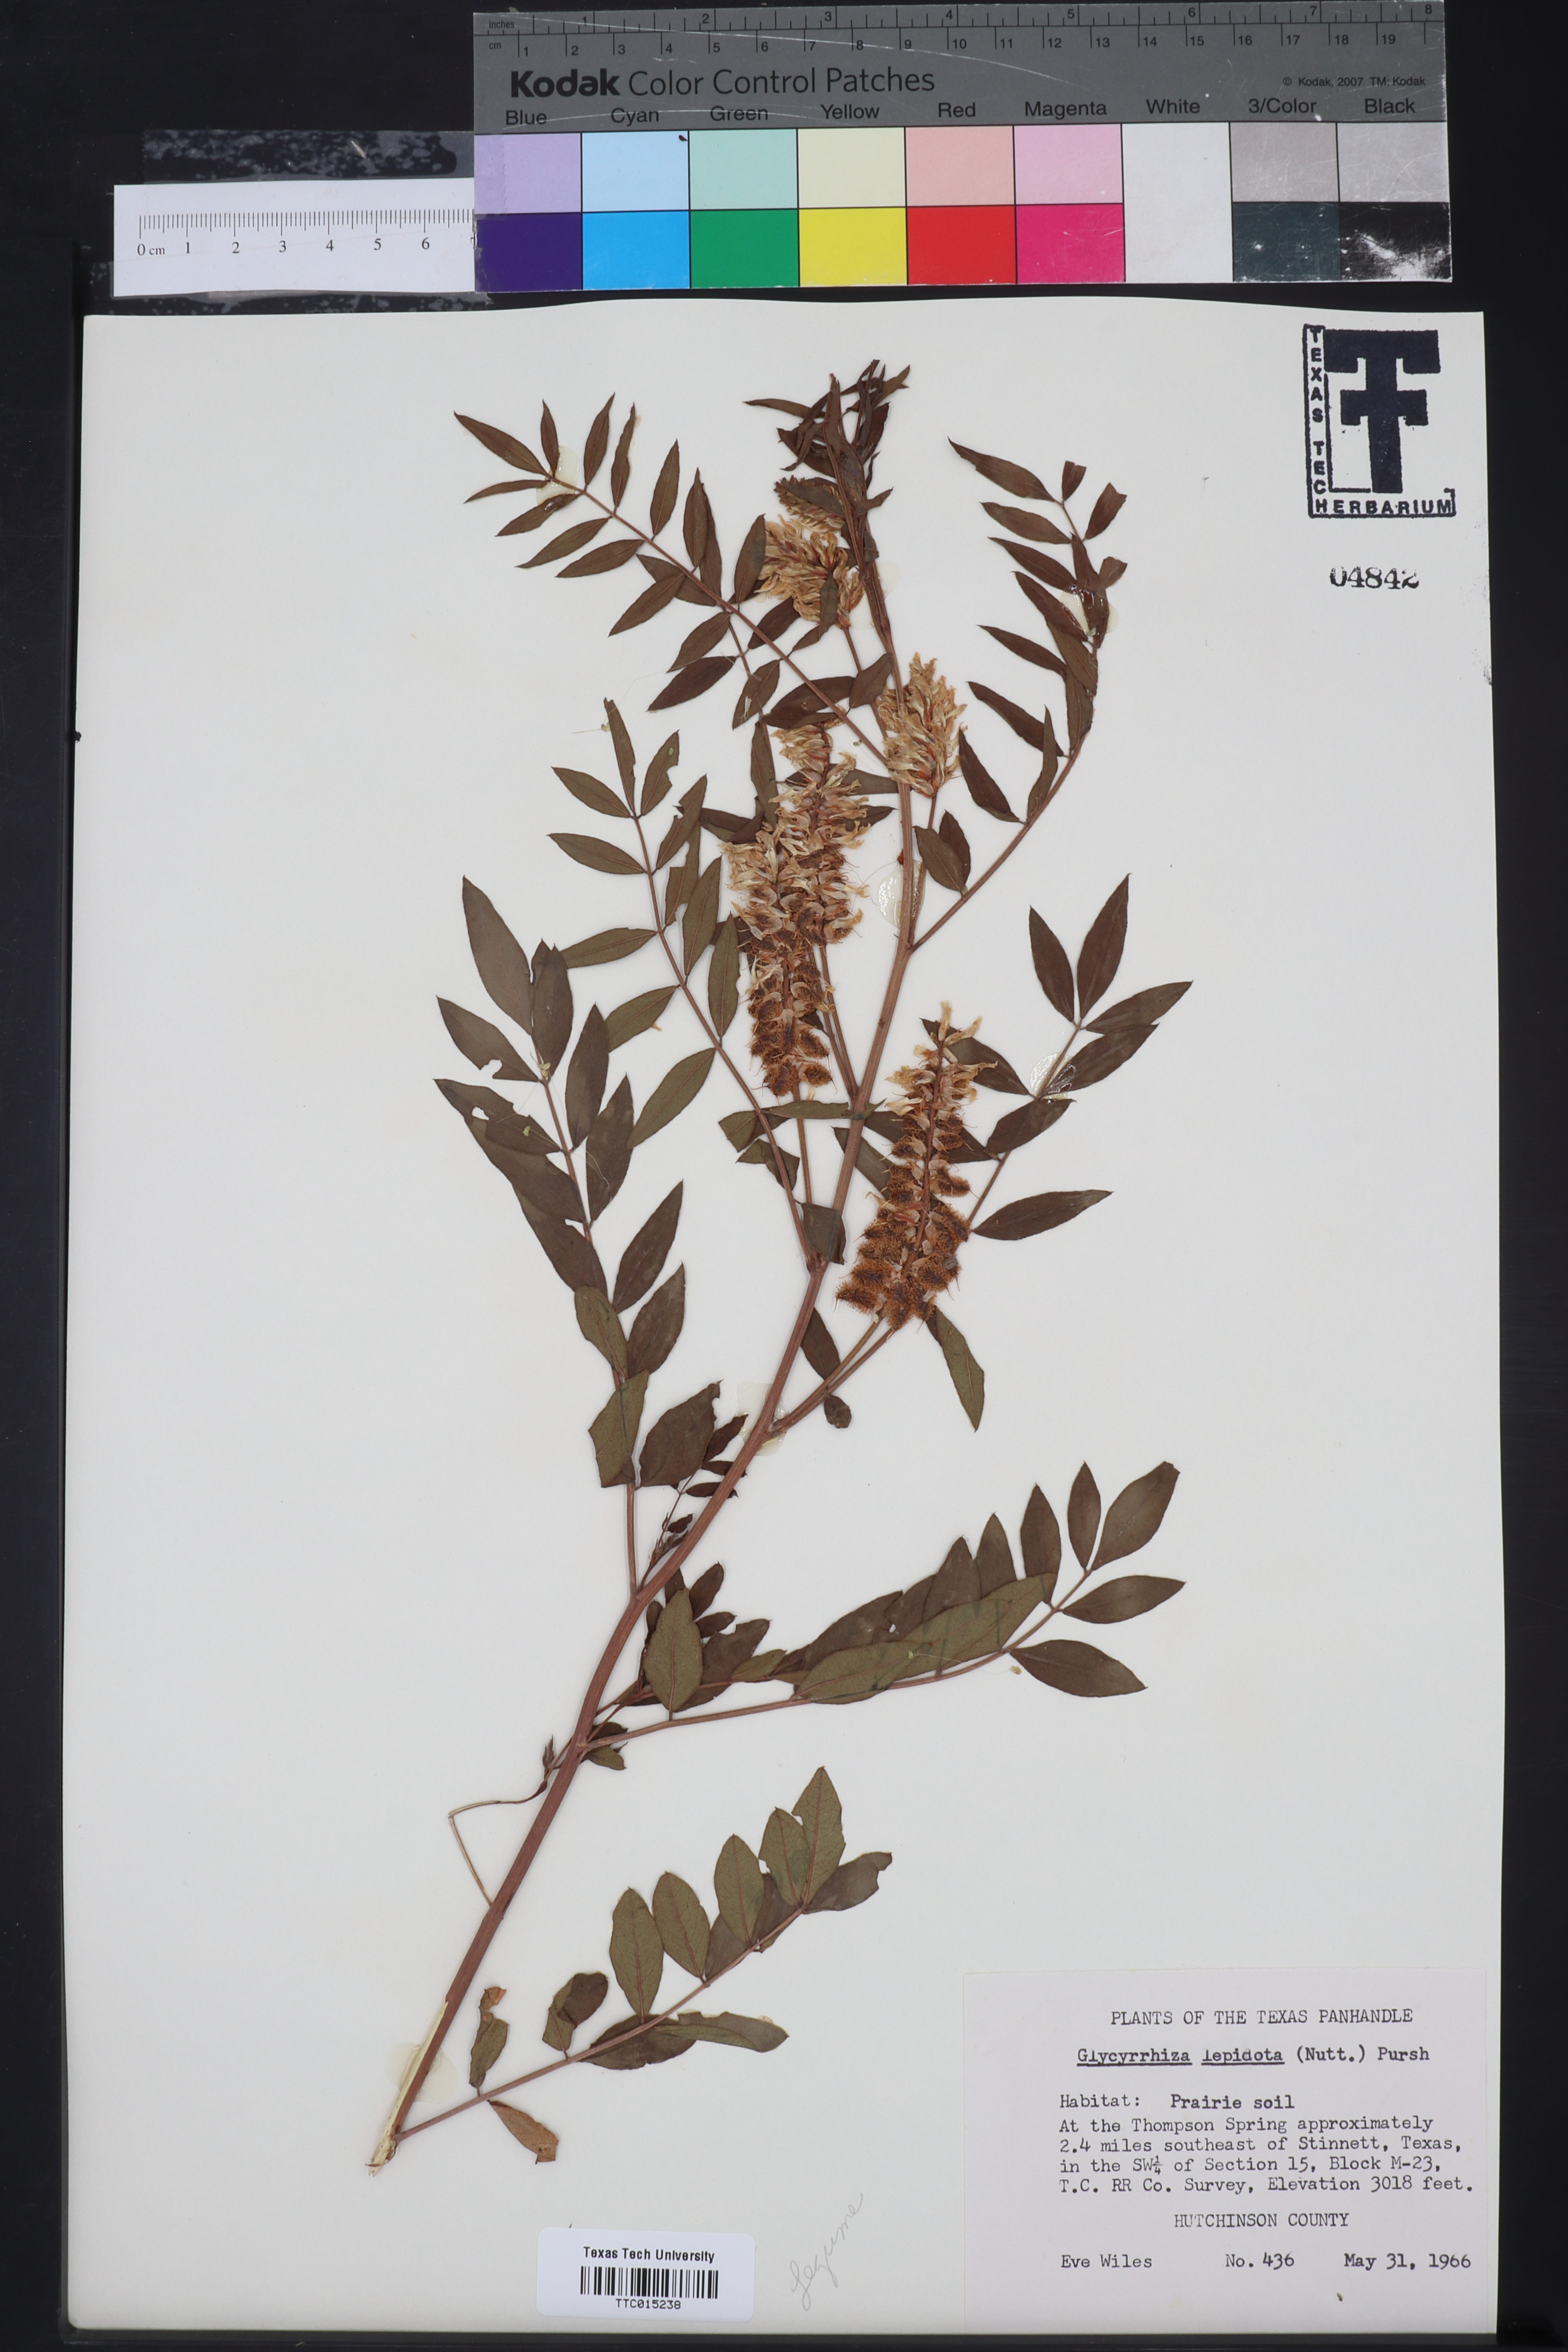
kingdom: Plantae
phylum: Tracheophyta
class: Magnoliopsida
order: Fabales
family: Fabaceae
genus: Glycyrrhiza
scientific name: Glycyrrhiza lepidota
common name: American liquorice
